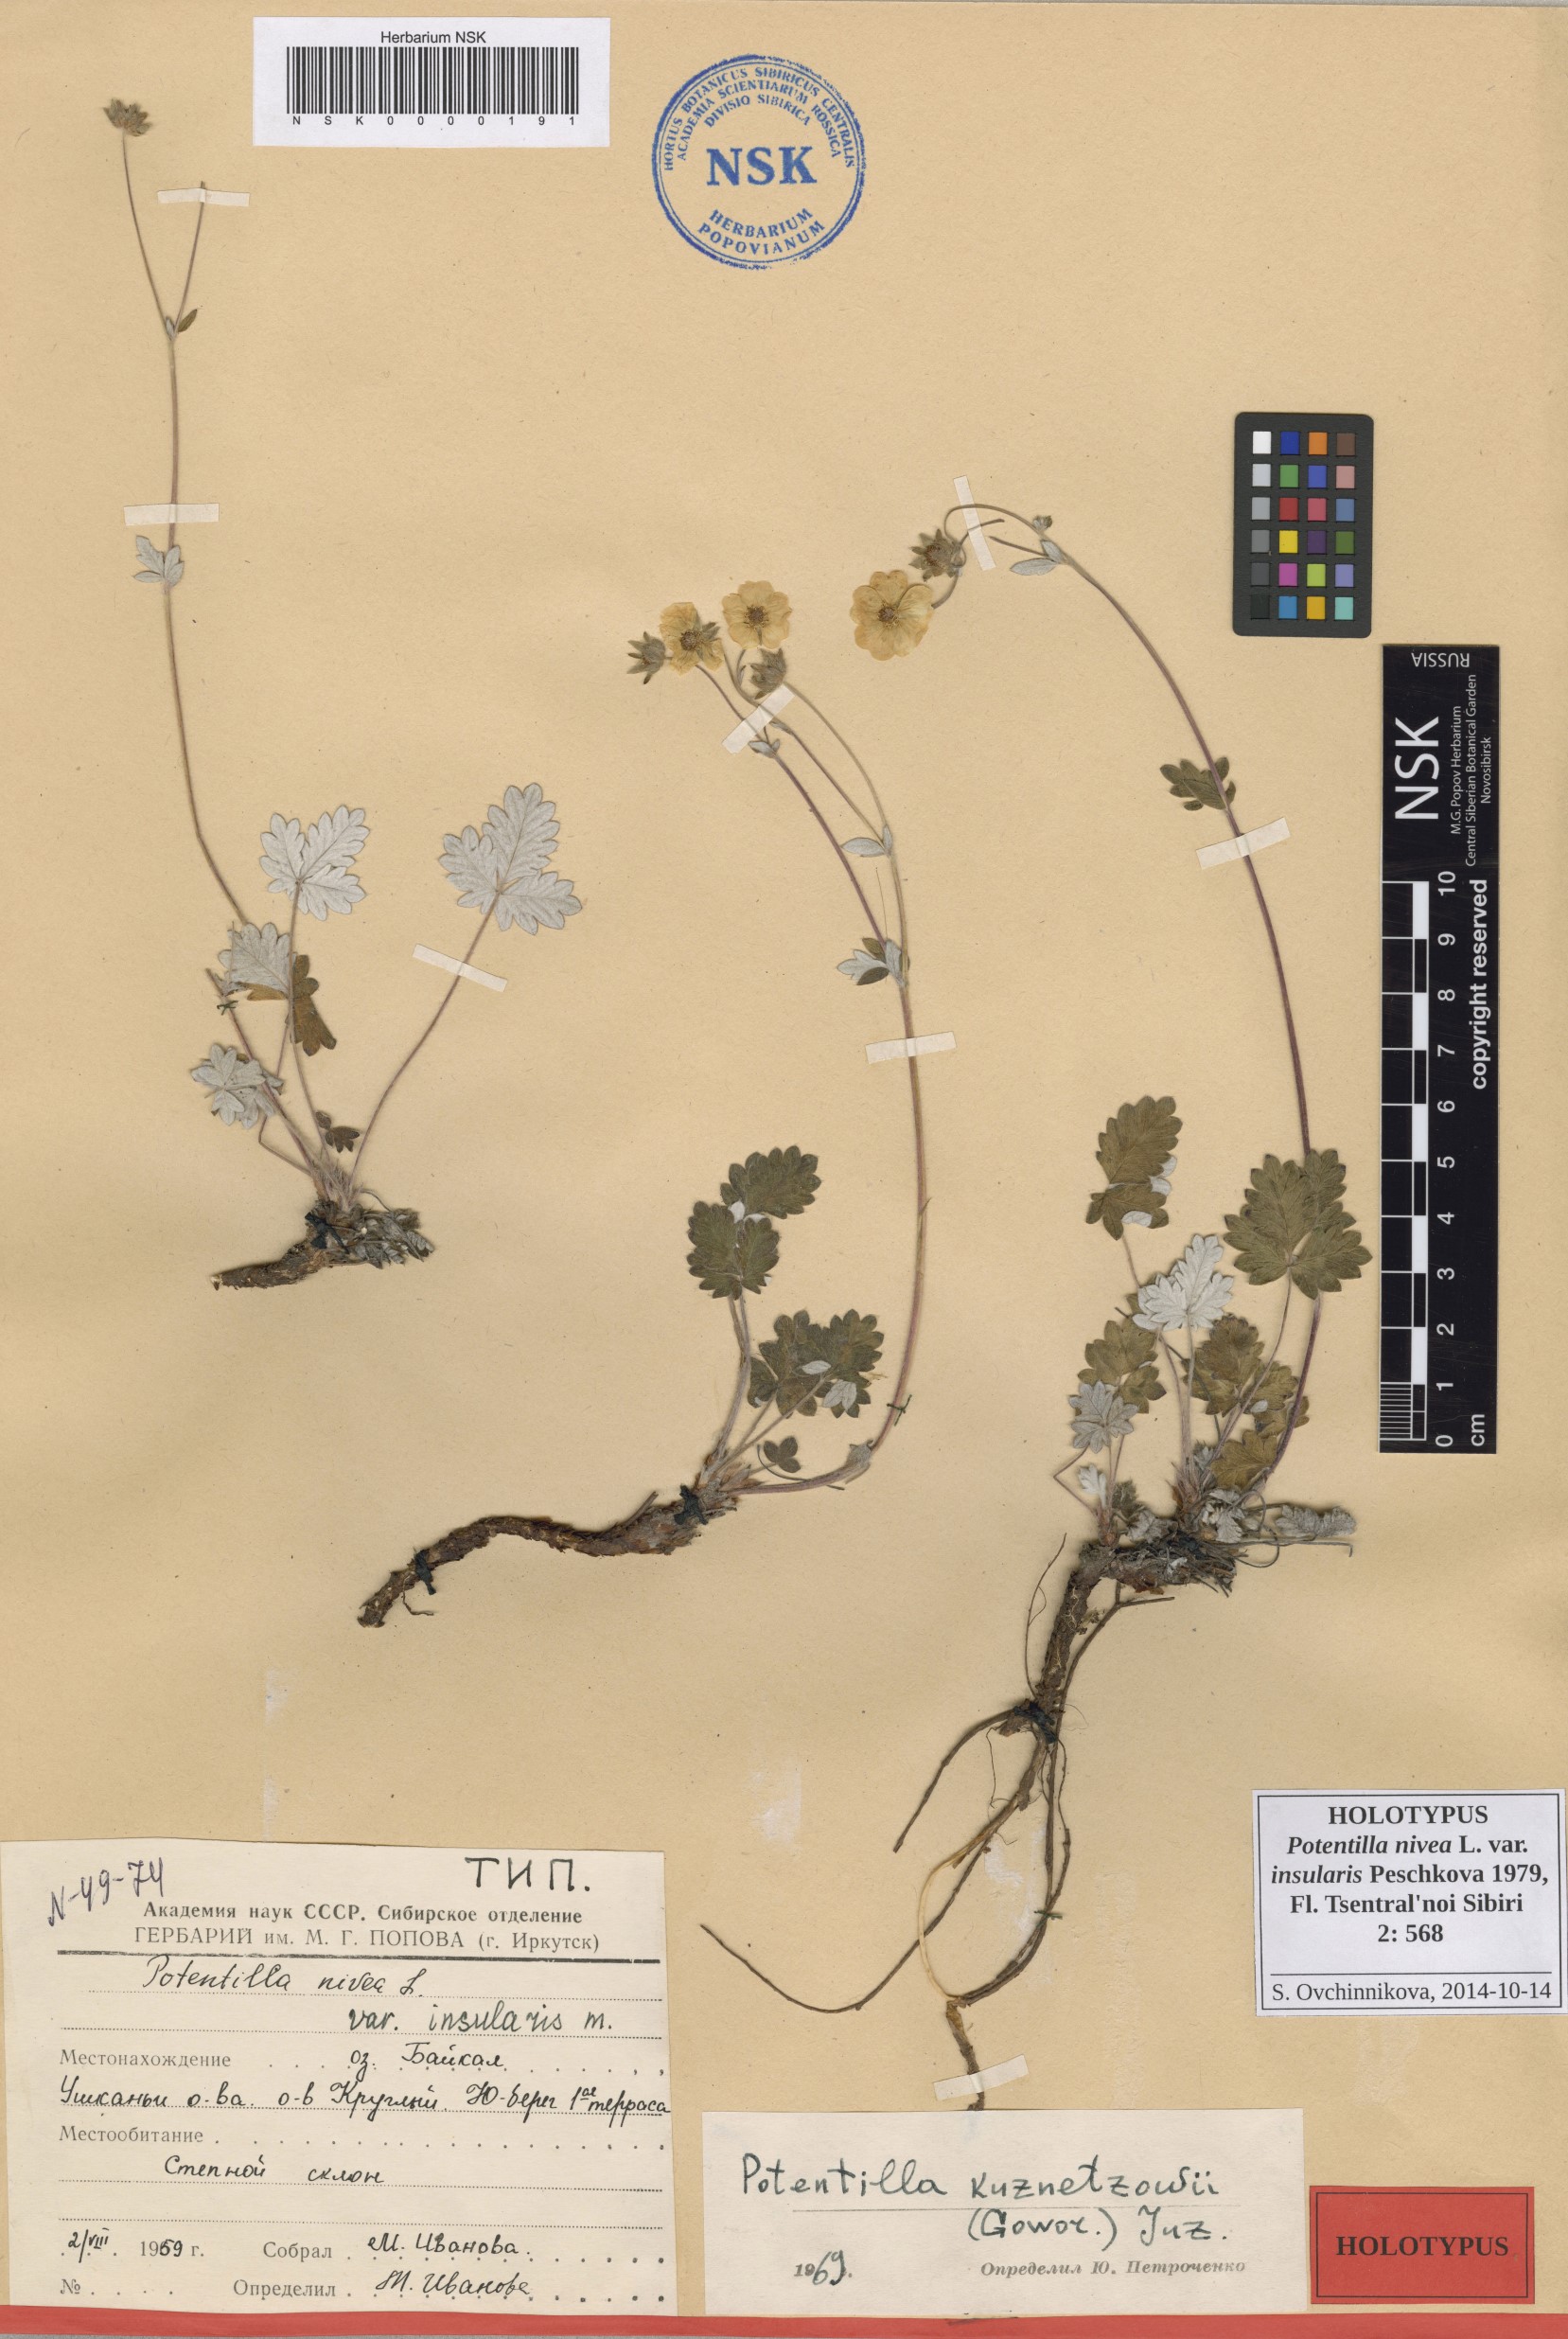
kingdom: Plantae
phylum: Tracheophyta
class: Magnoliopsida
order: Rosales
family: Rosaceae
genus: Potentilla
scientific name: Potentilla nivea
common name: Snow cinquefoil
